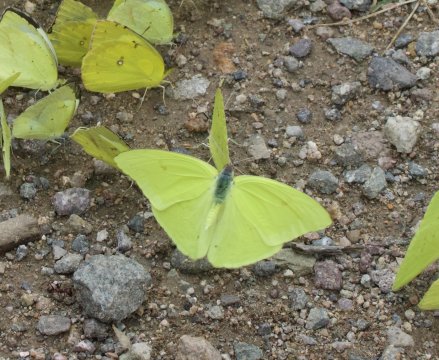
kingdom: Animalia
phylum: Arthropoda
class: Insecta
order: Lepidoptera
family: Pieridae
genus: Phoebis
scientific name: Phoebis sennae
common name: Cloudless Sulphur
